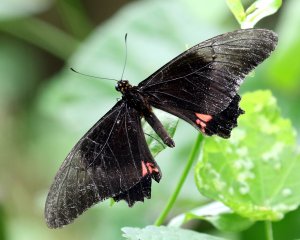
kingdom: Animalia
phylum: Arthropoda
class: Insecta
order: Lepidoptera
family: Papilionidae
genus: Papilio
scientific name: Papilio anchisiades
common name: Ruby-spotted Swallowtail
